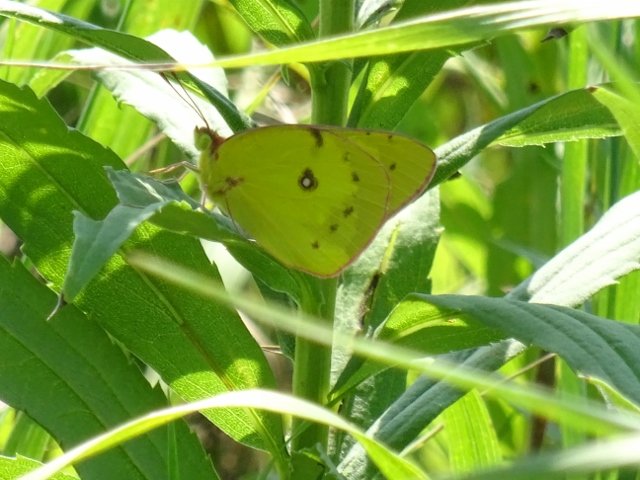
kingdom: Animalia
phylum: Arthropoda
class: Insecta
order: Lepidoptera
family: Pieridae
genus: Colias
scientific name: Colias philodice
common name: Clouded Sulphur
